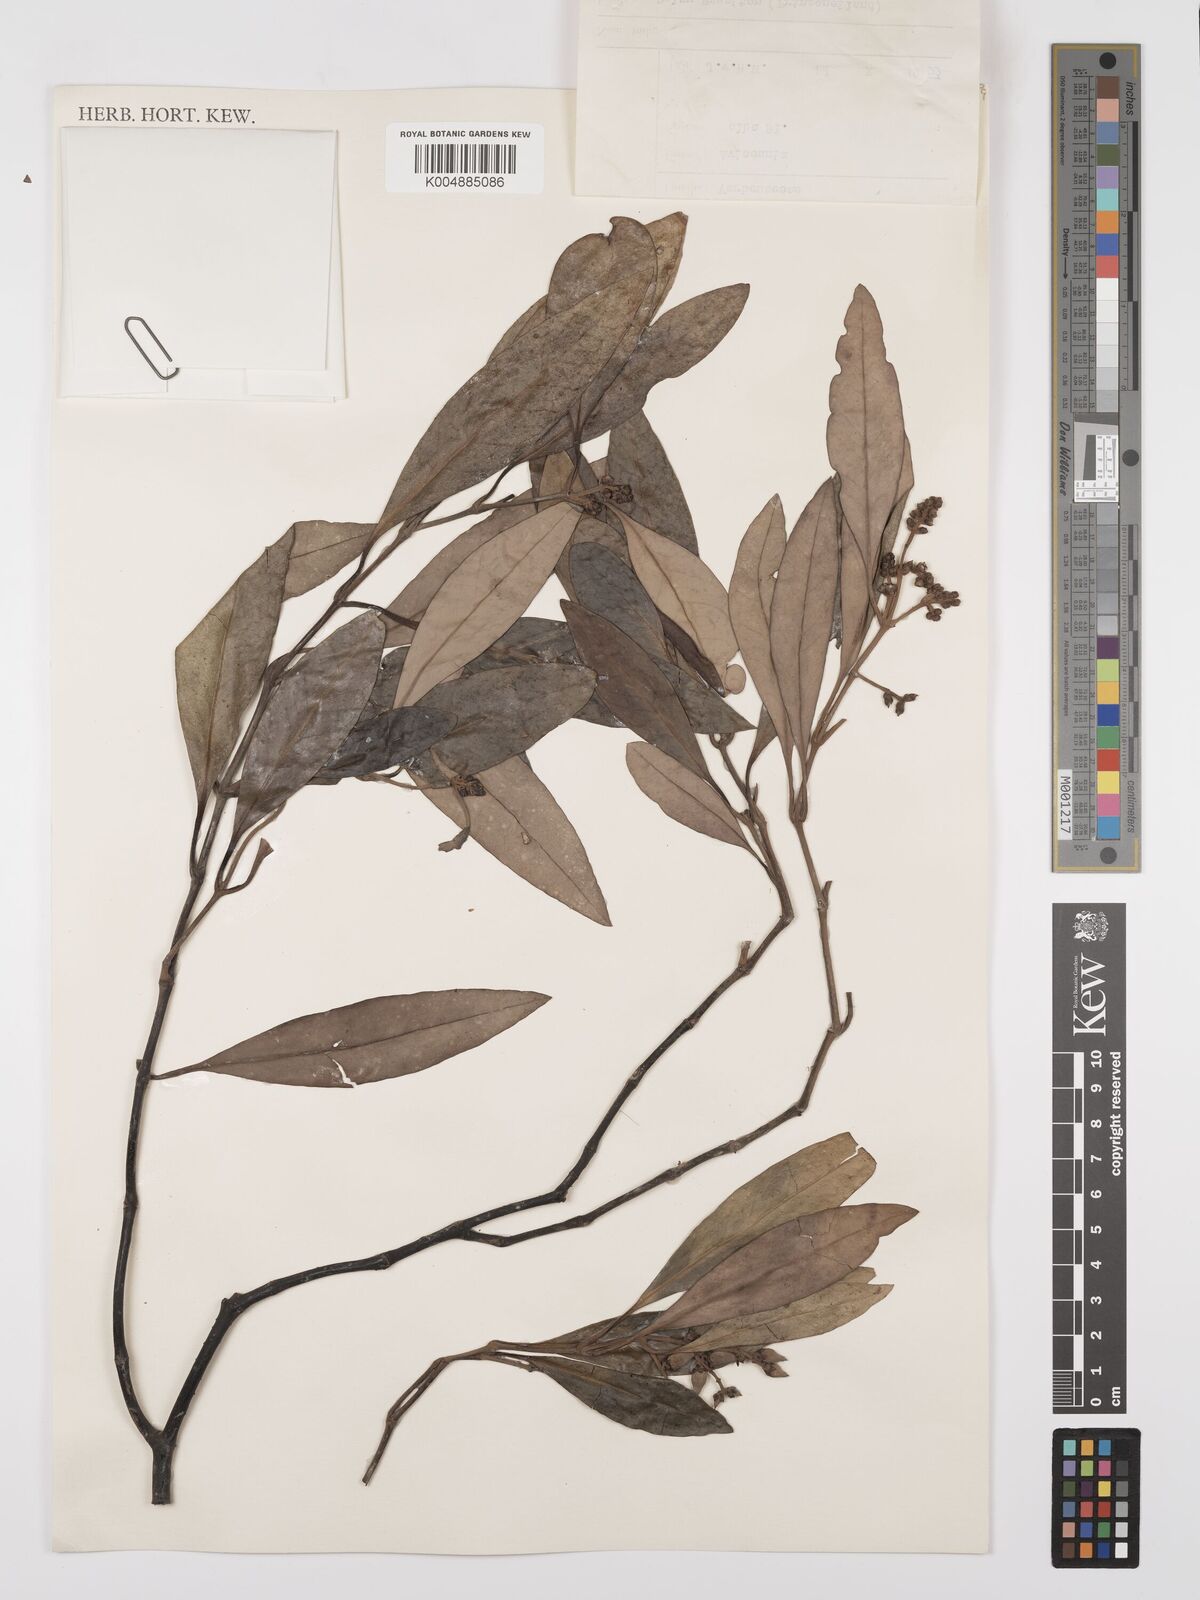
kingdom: Plantae
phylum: Tracheophyta
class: Magnoliopsida
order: Lamiales
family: Acanthaceae
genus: Avicennia
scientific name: Avicennia alba
